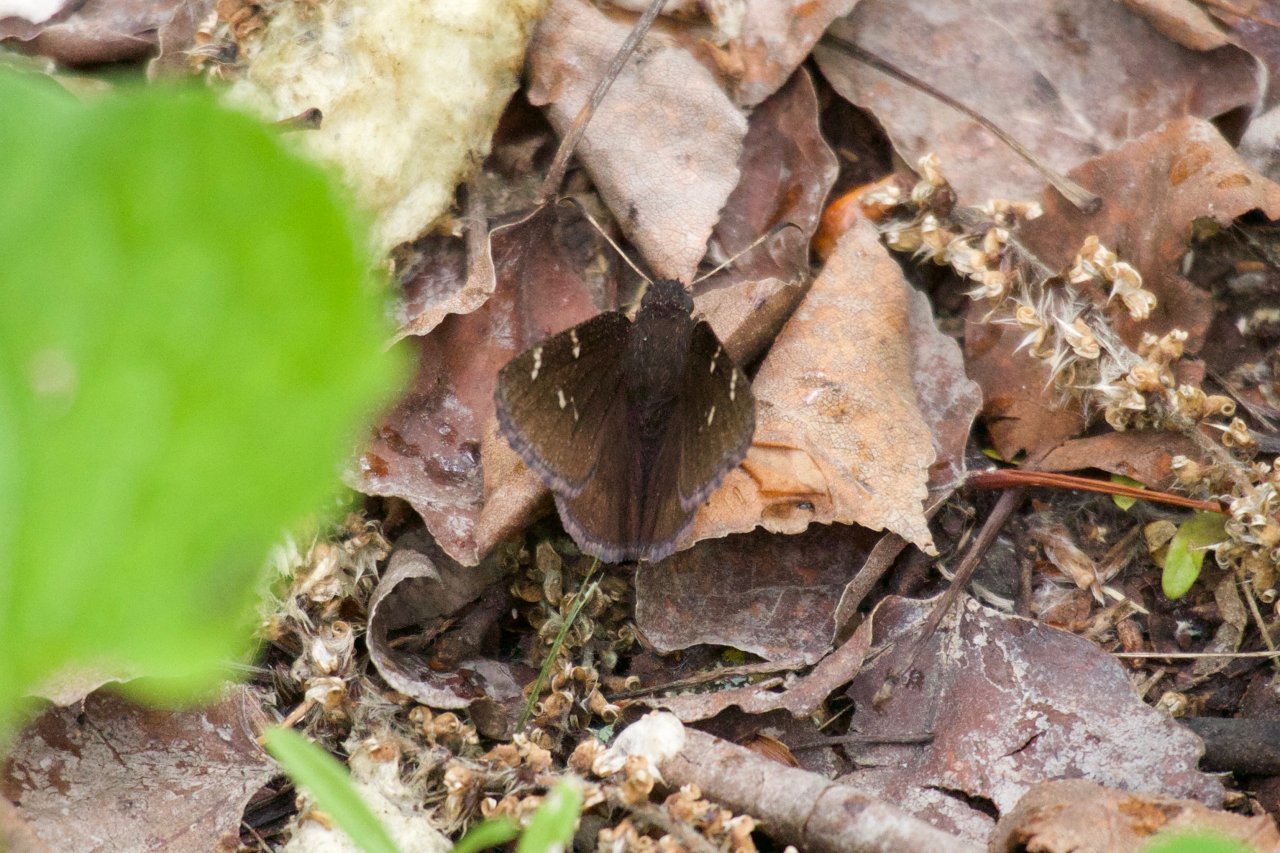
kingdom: Animalia
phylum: Arthropoda
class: Insecta
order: Lepidoptera
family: Hesperiidae
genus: Autochton
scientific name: Autochton
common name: Northern Cloudywing
